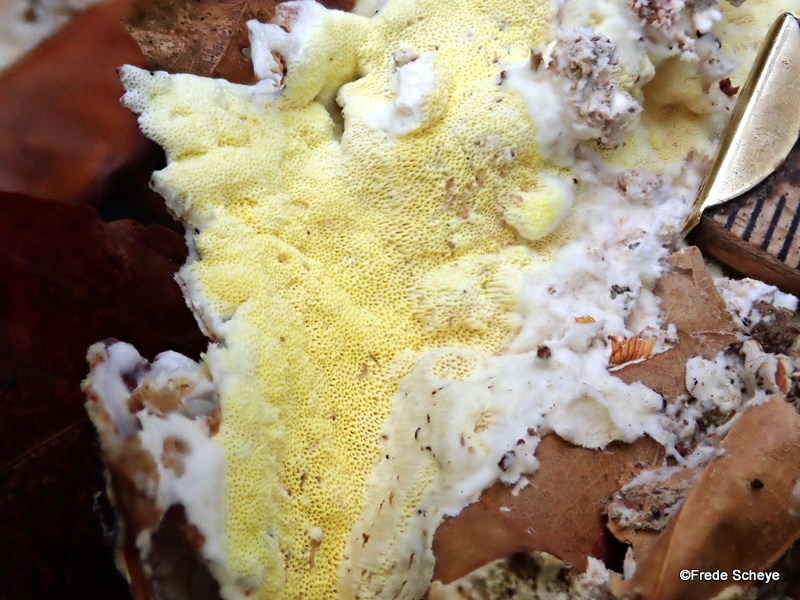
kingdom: Fungi
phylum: Basidiomycota
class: Agaricomycetes
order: Polyporales
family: Fomitopsidaceae
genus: Daedalea
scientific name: Daedalea xantha
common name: gul sejporesvamp
